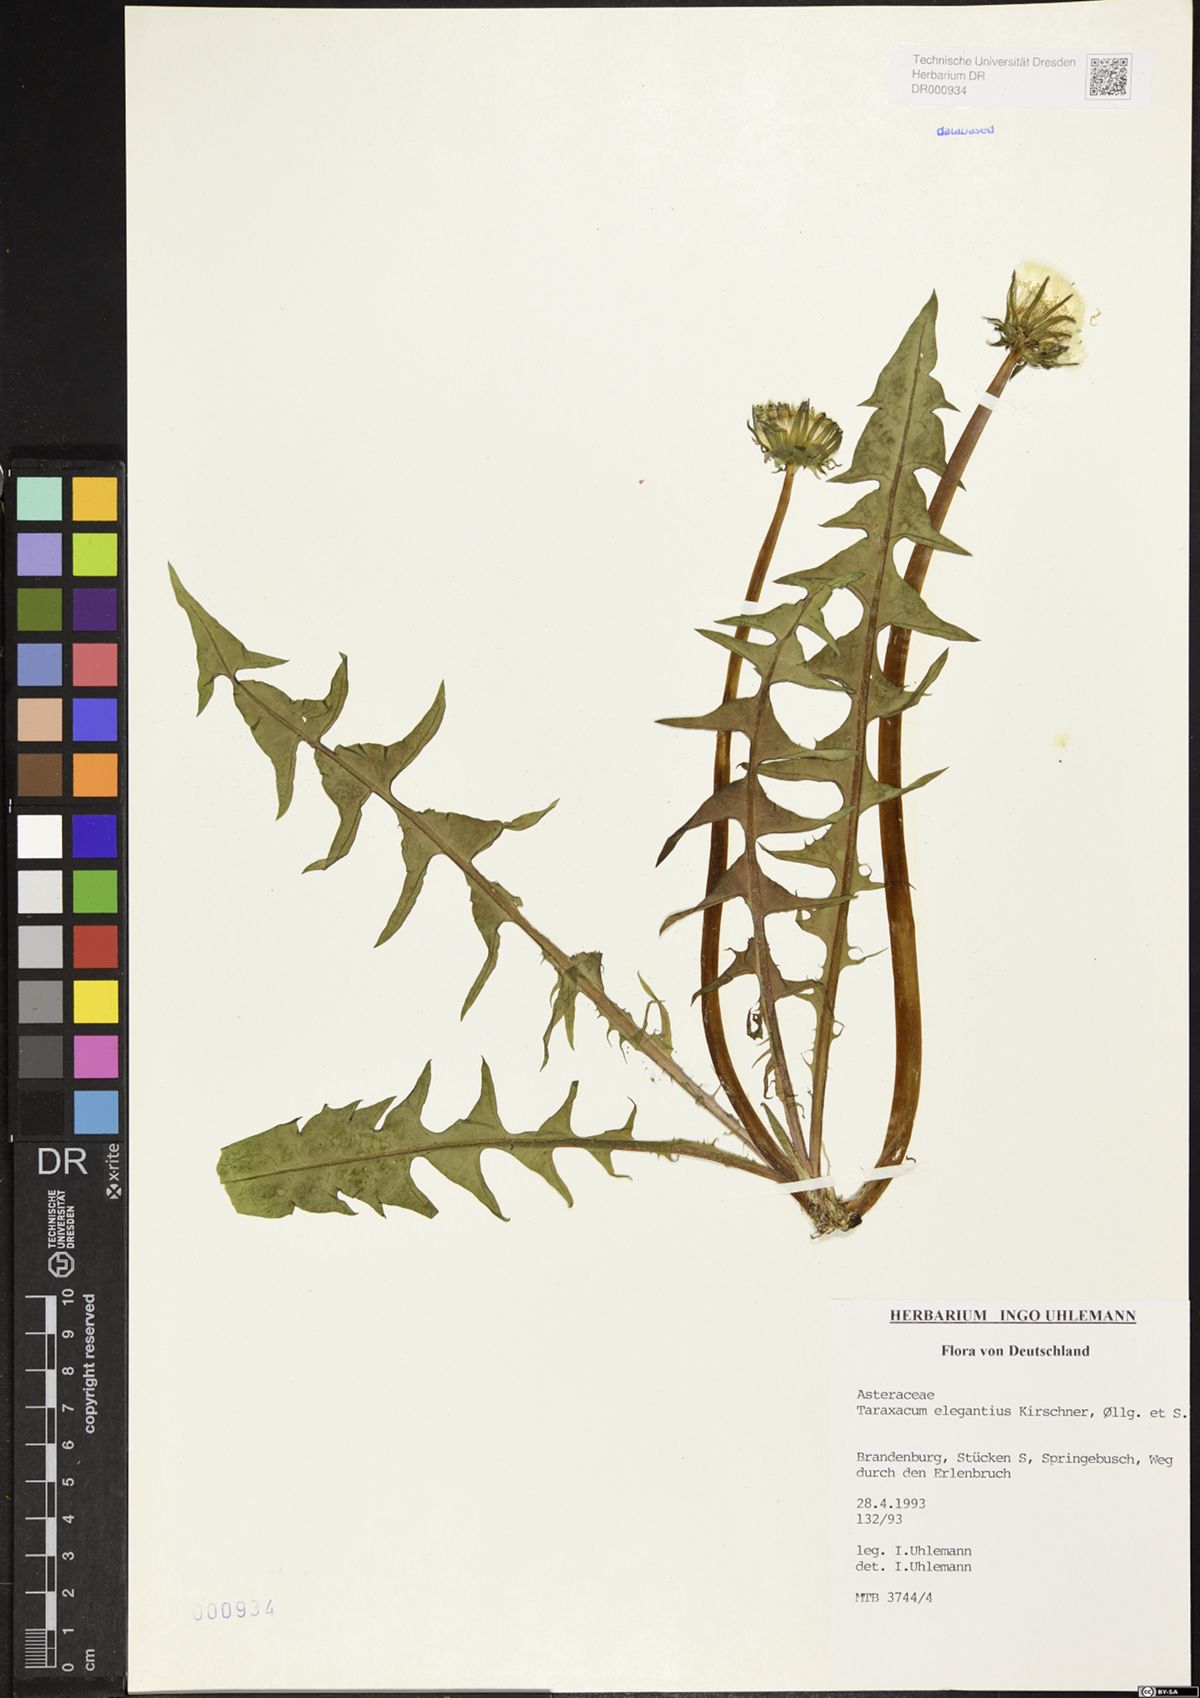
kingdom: Plantae
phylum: Tracheophyta
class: Magnoliopsida
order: Asterales
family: Asteraceae
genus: Taraxacum
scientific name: Taraxacum elegantius
